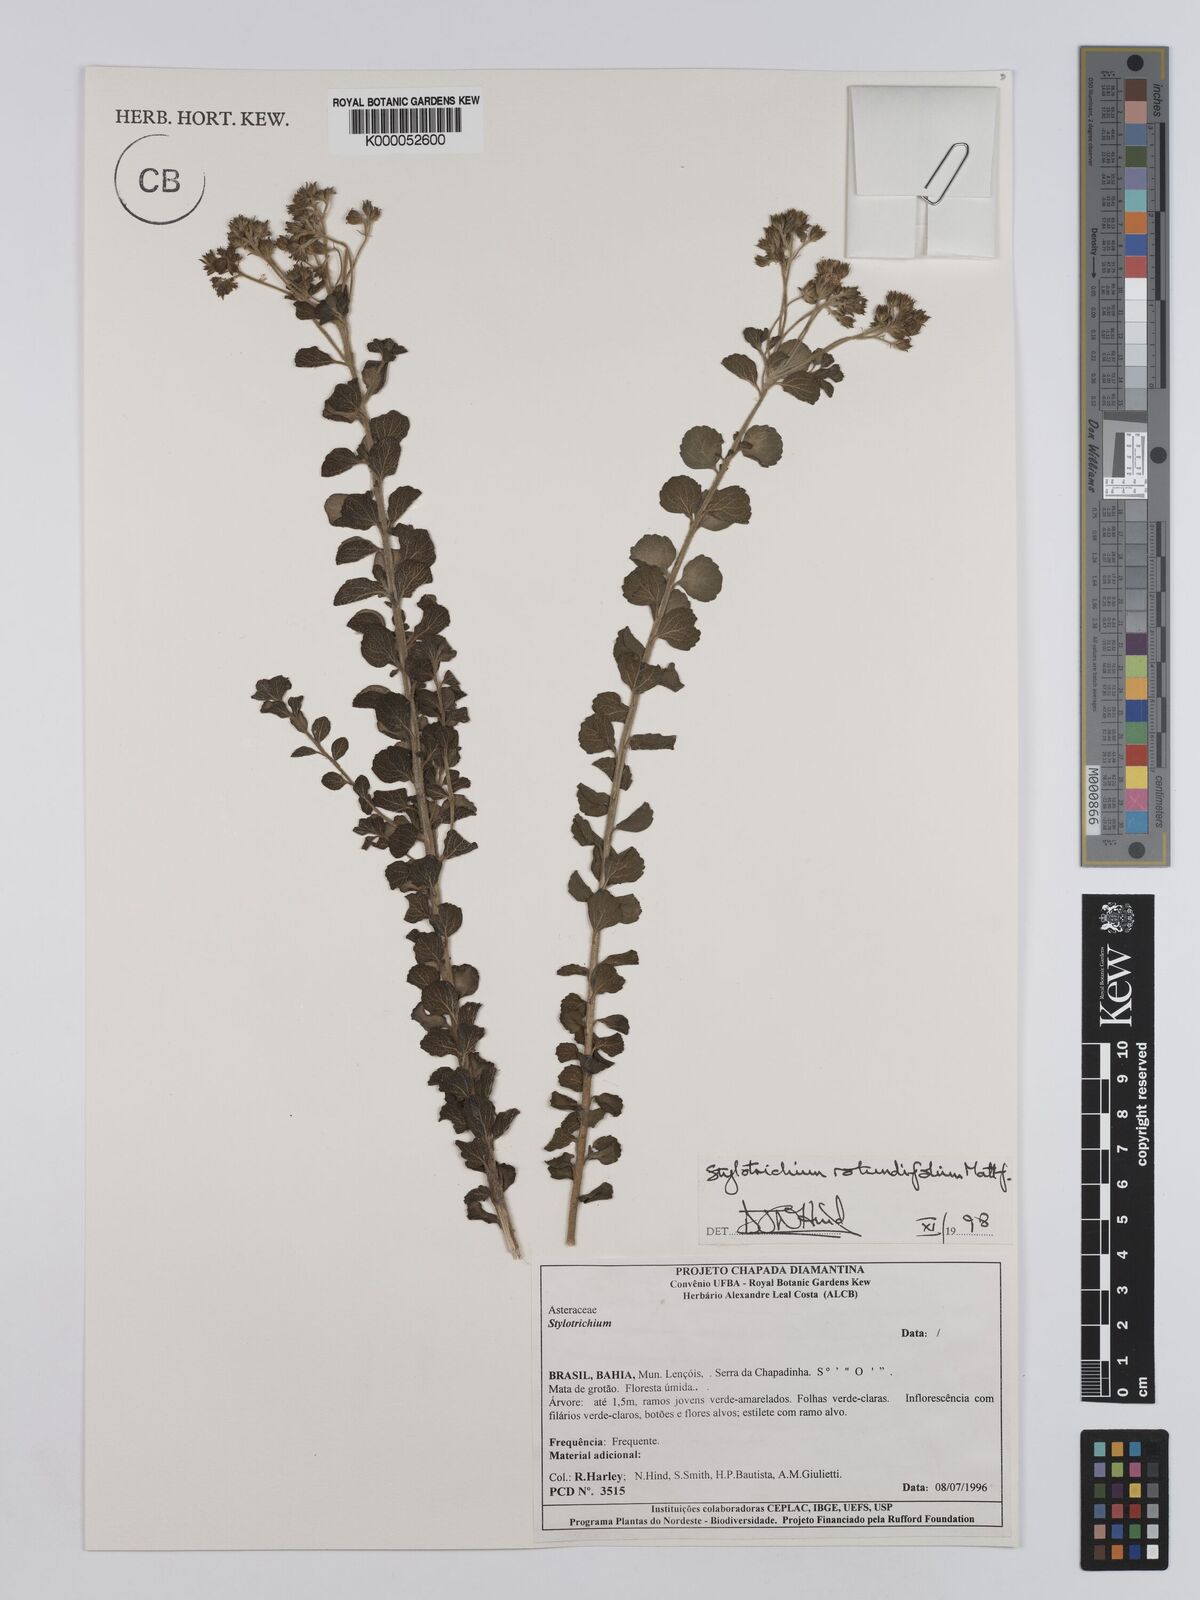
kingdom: Plantae
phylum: Tracheophyta
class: Magnoliopsida
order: Asterales
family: Asteraceae
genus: Stylotrichium
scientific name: Stylotrichium rotundifolium
